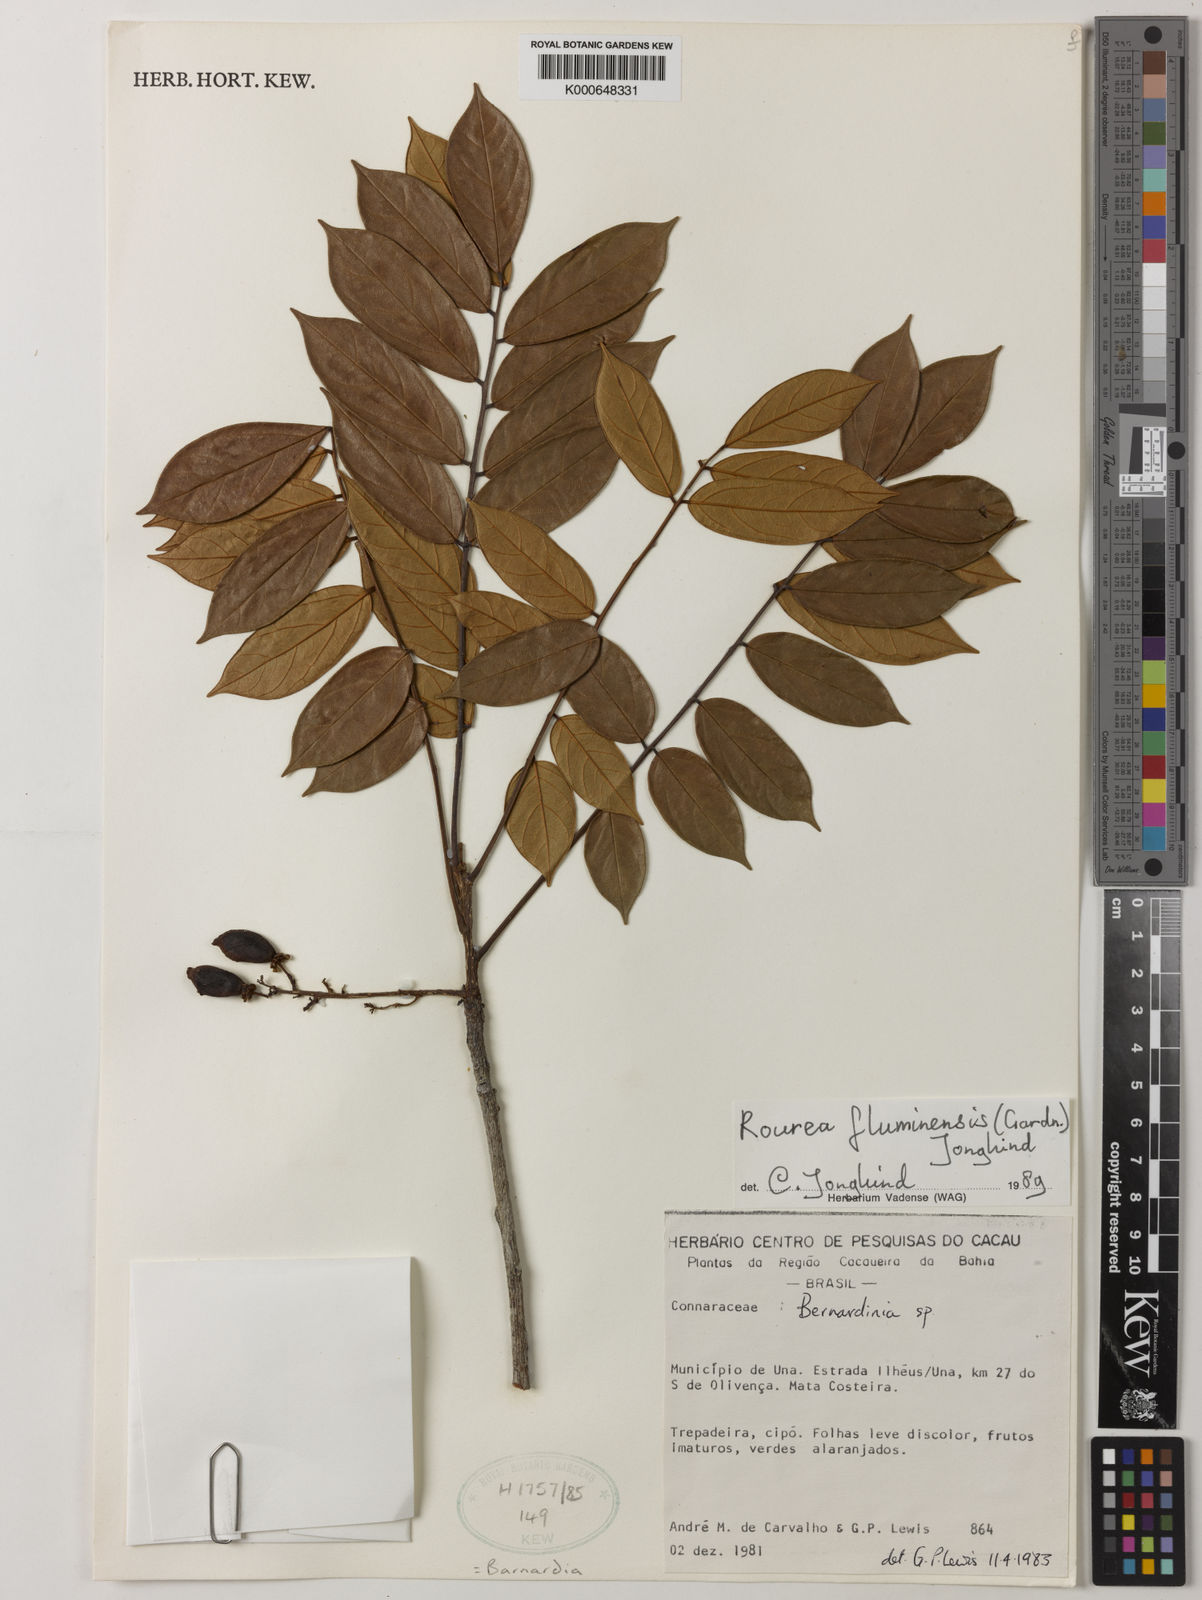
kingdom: Plantae
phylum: Tracheophyta
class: Magnoliopsida
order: Oxalidales
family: Connaraceae
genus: Rourea
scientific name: Rourea fluminensis
